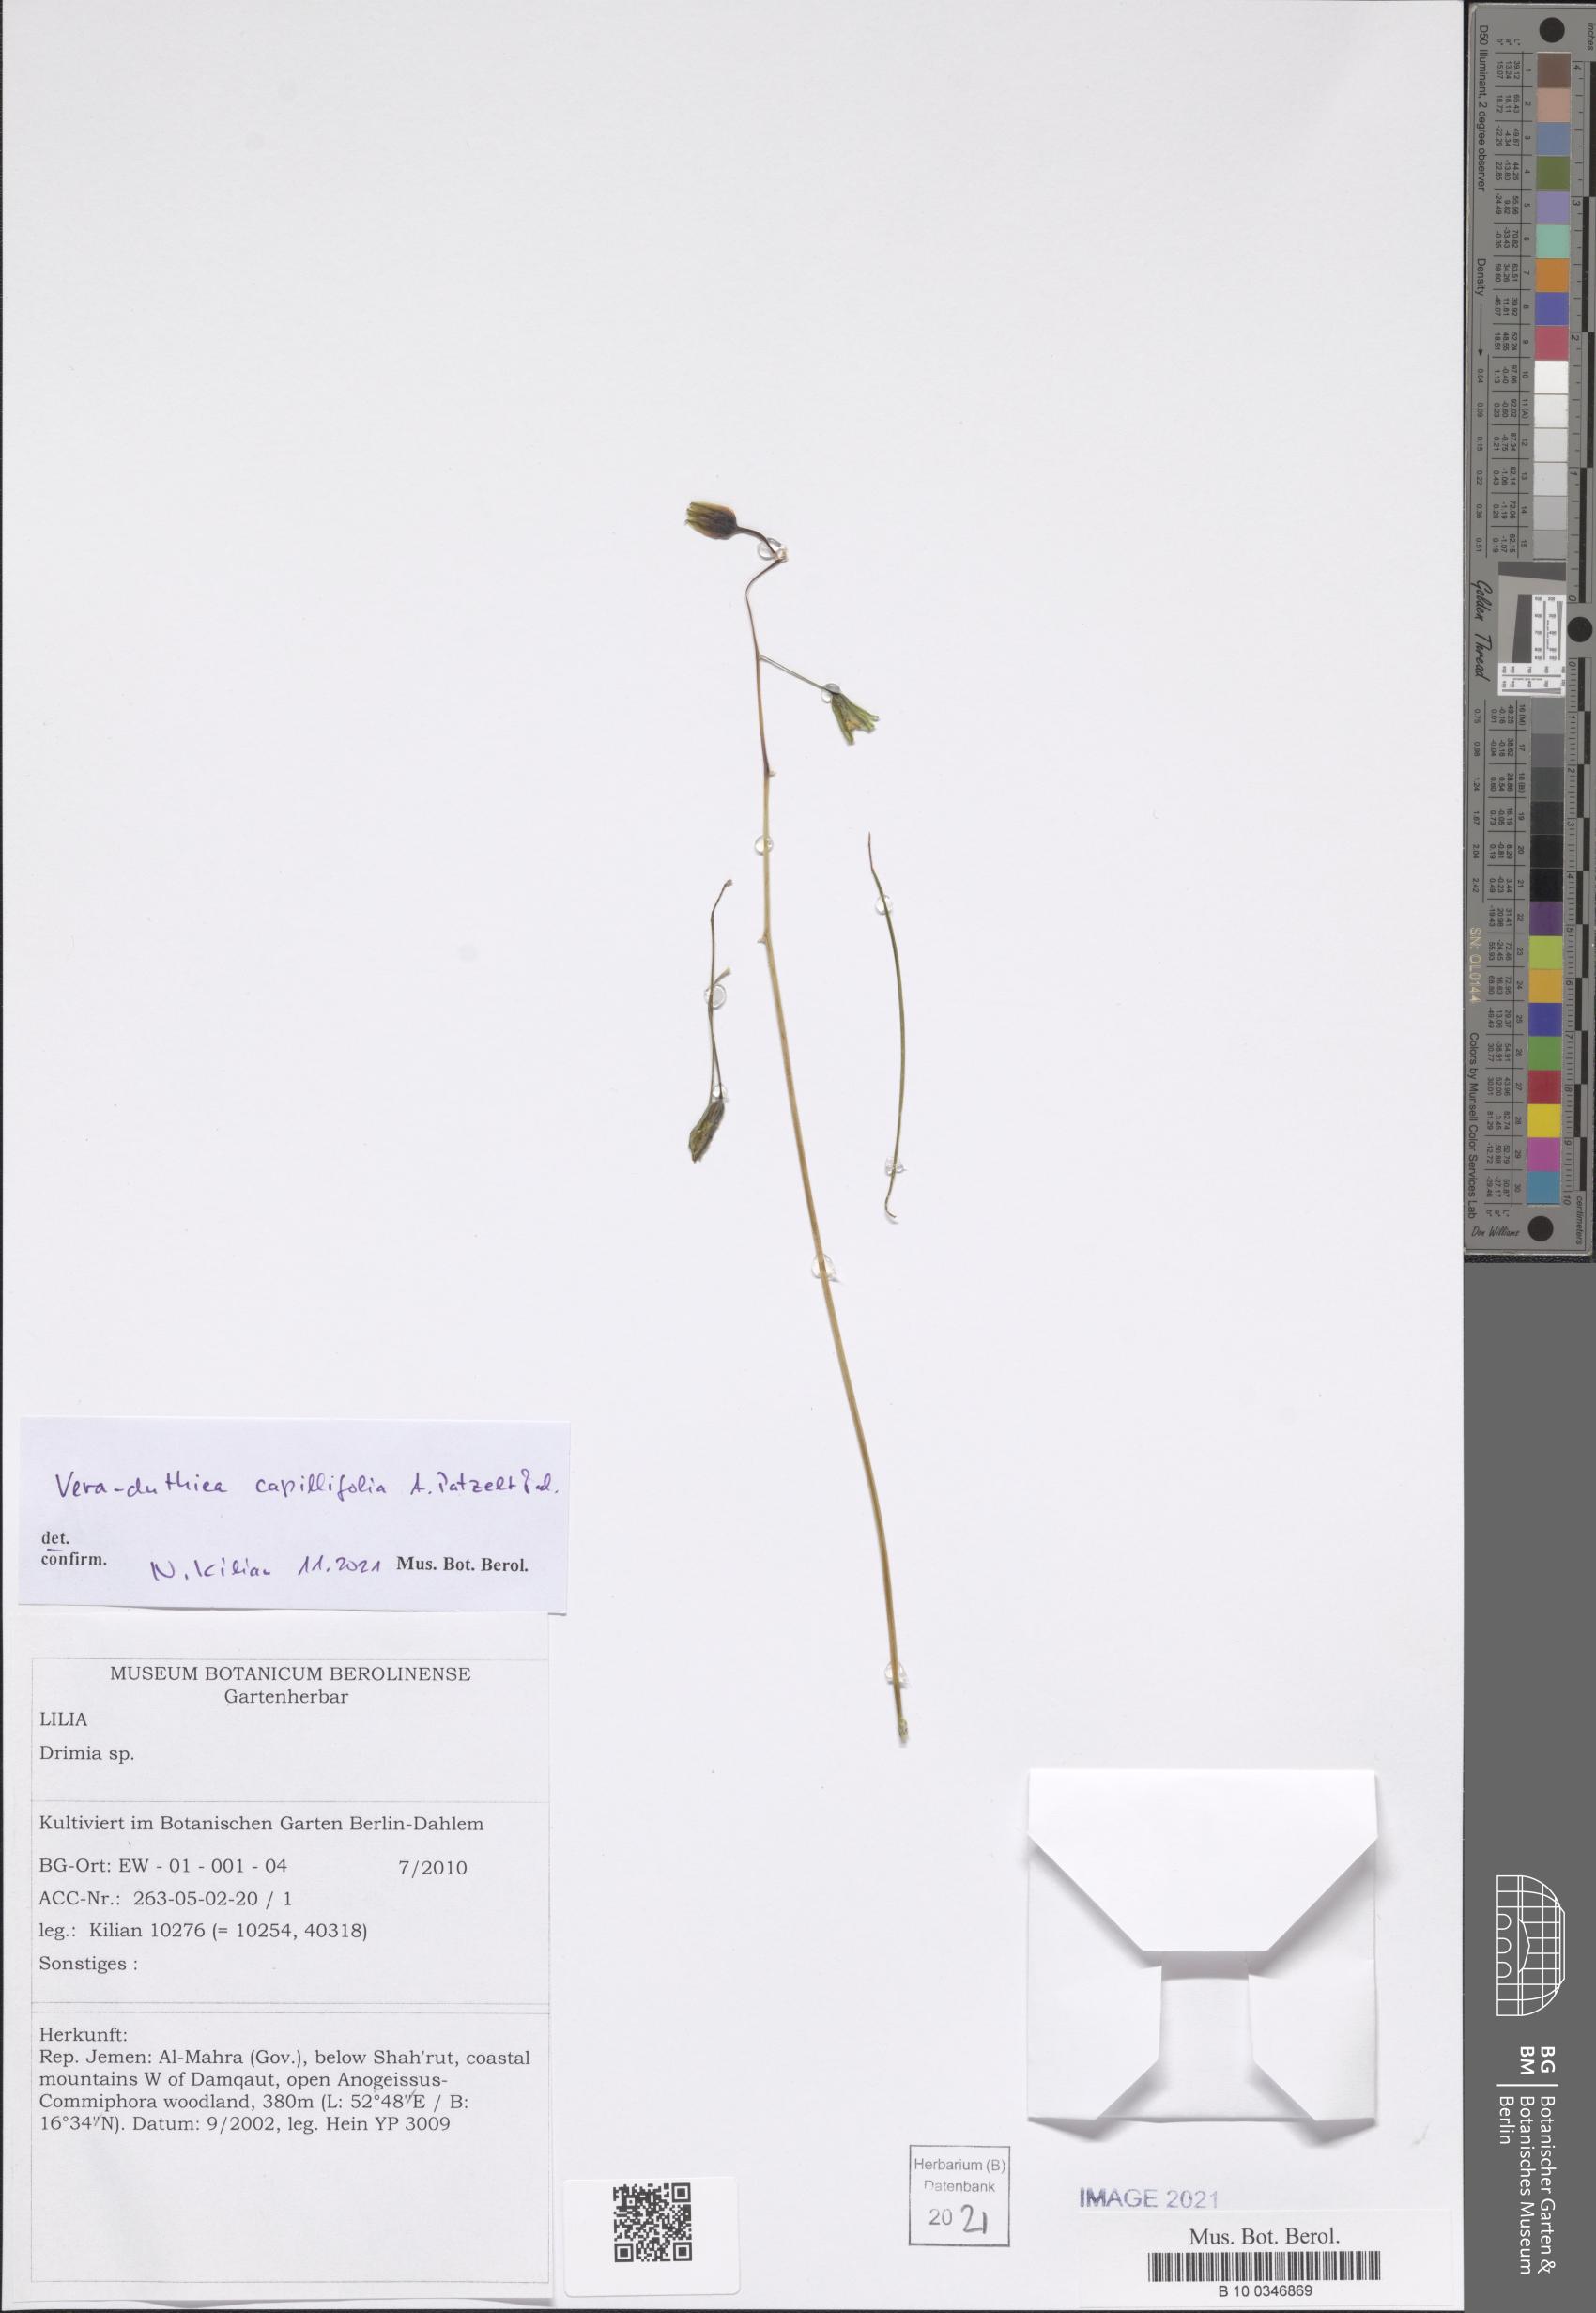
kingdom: Plantae
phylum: Tracheophyta
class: Liliopsida
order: Asparagales
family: Asparagaceae
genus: Drimia
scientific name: Drimia Vera-duthiea capillifolia
